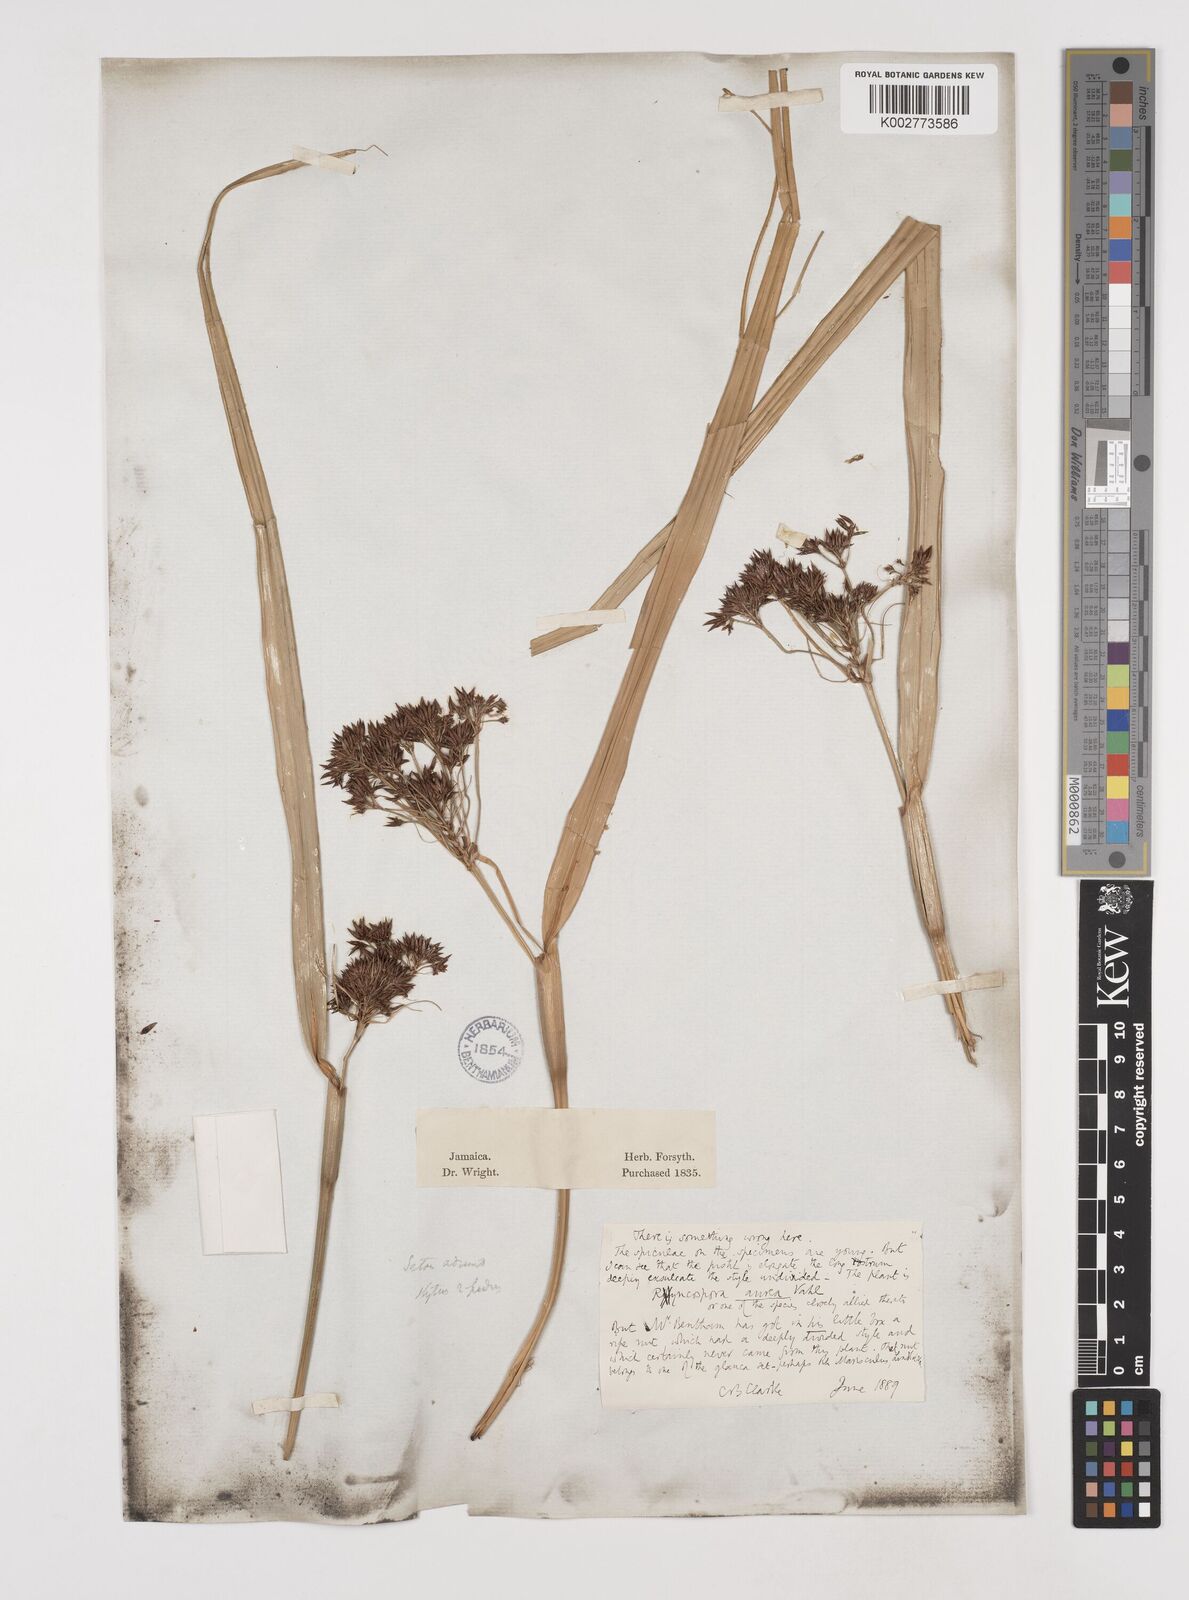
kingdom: Plantae
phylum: Tracheophyta
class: Liliopsida
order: Poales
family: Cyperaceae
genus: Rhynchospora
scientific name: Rhynchospora corymbosa
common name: Golden beak sedge
